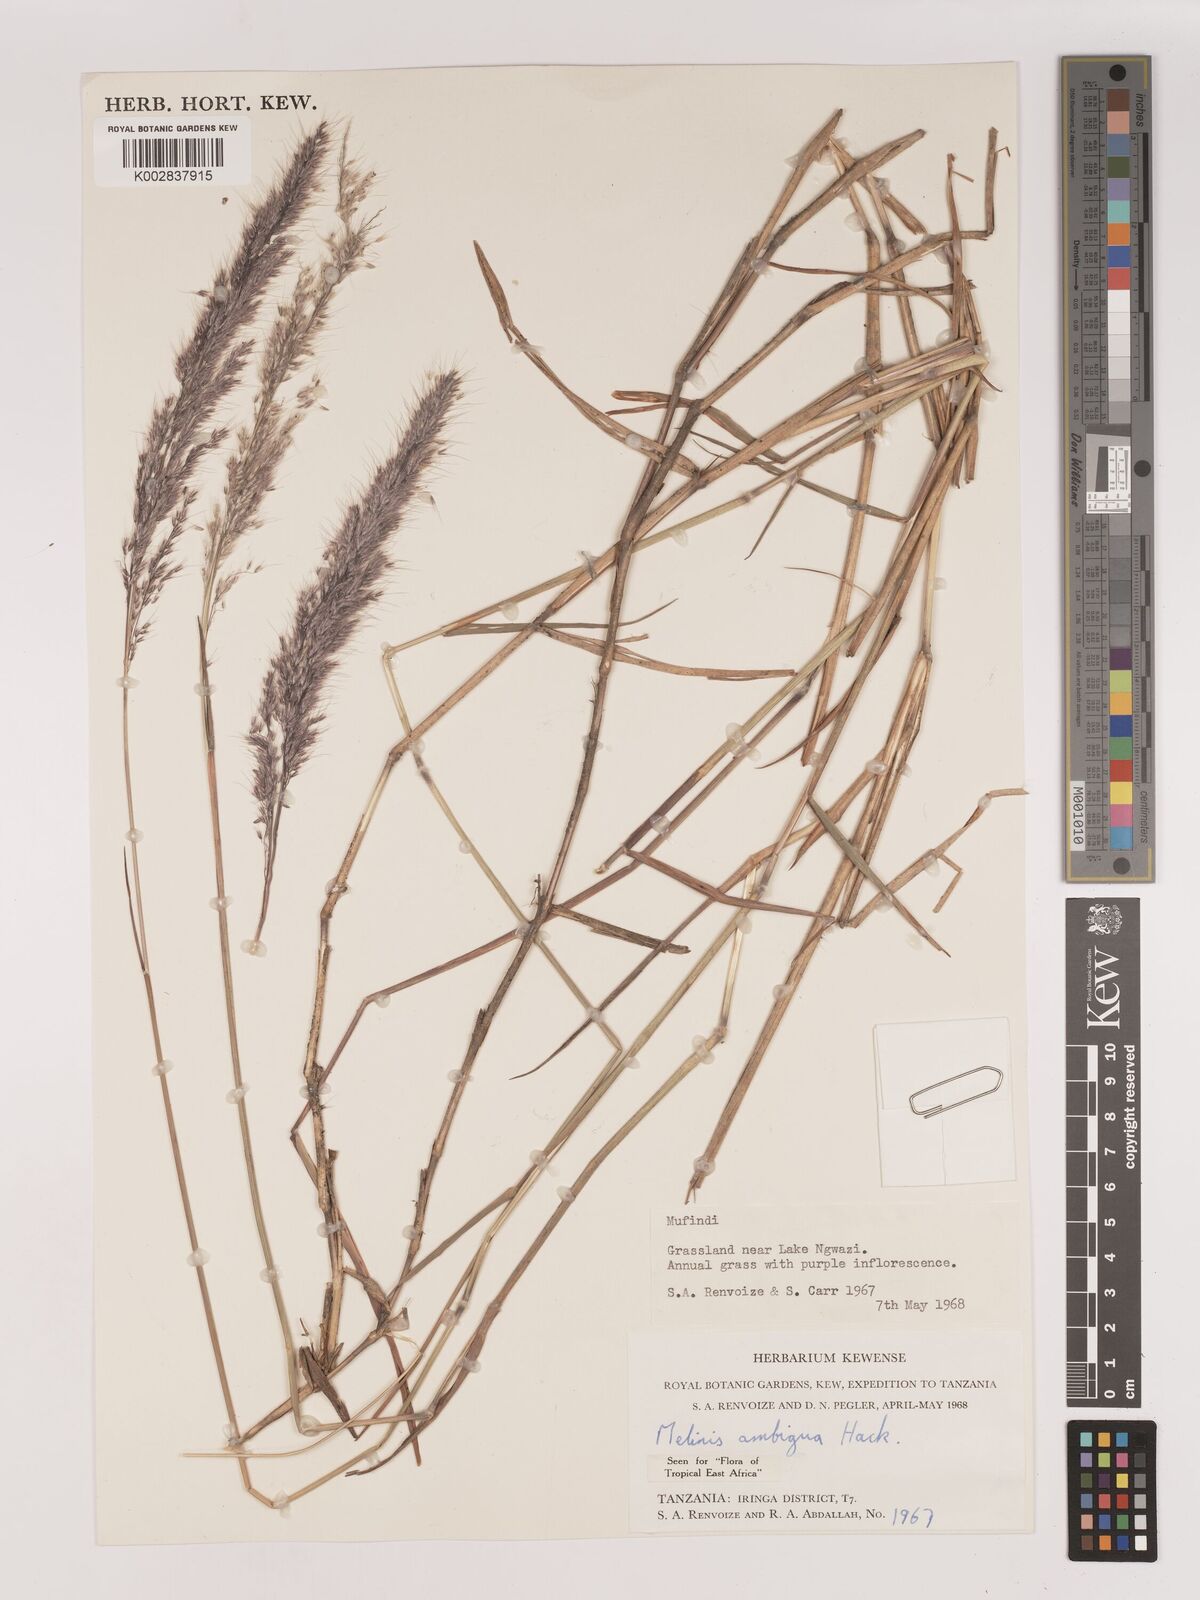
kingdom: Plantae
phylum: Tracheophyta
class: Liliopsida
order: Poales
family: Poaceae
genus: Melinis
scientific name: Melinis ambigua
